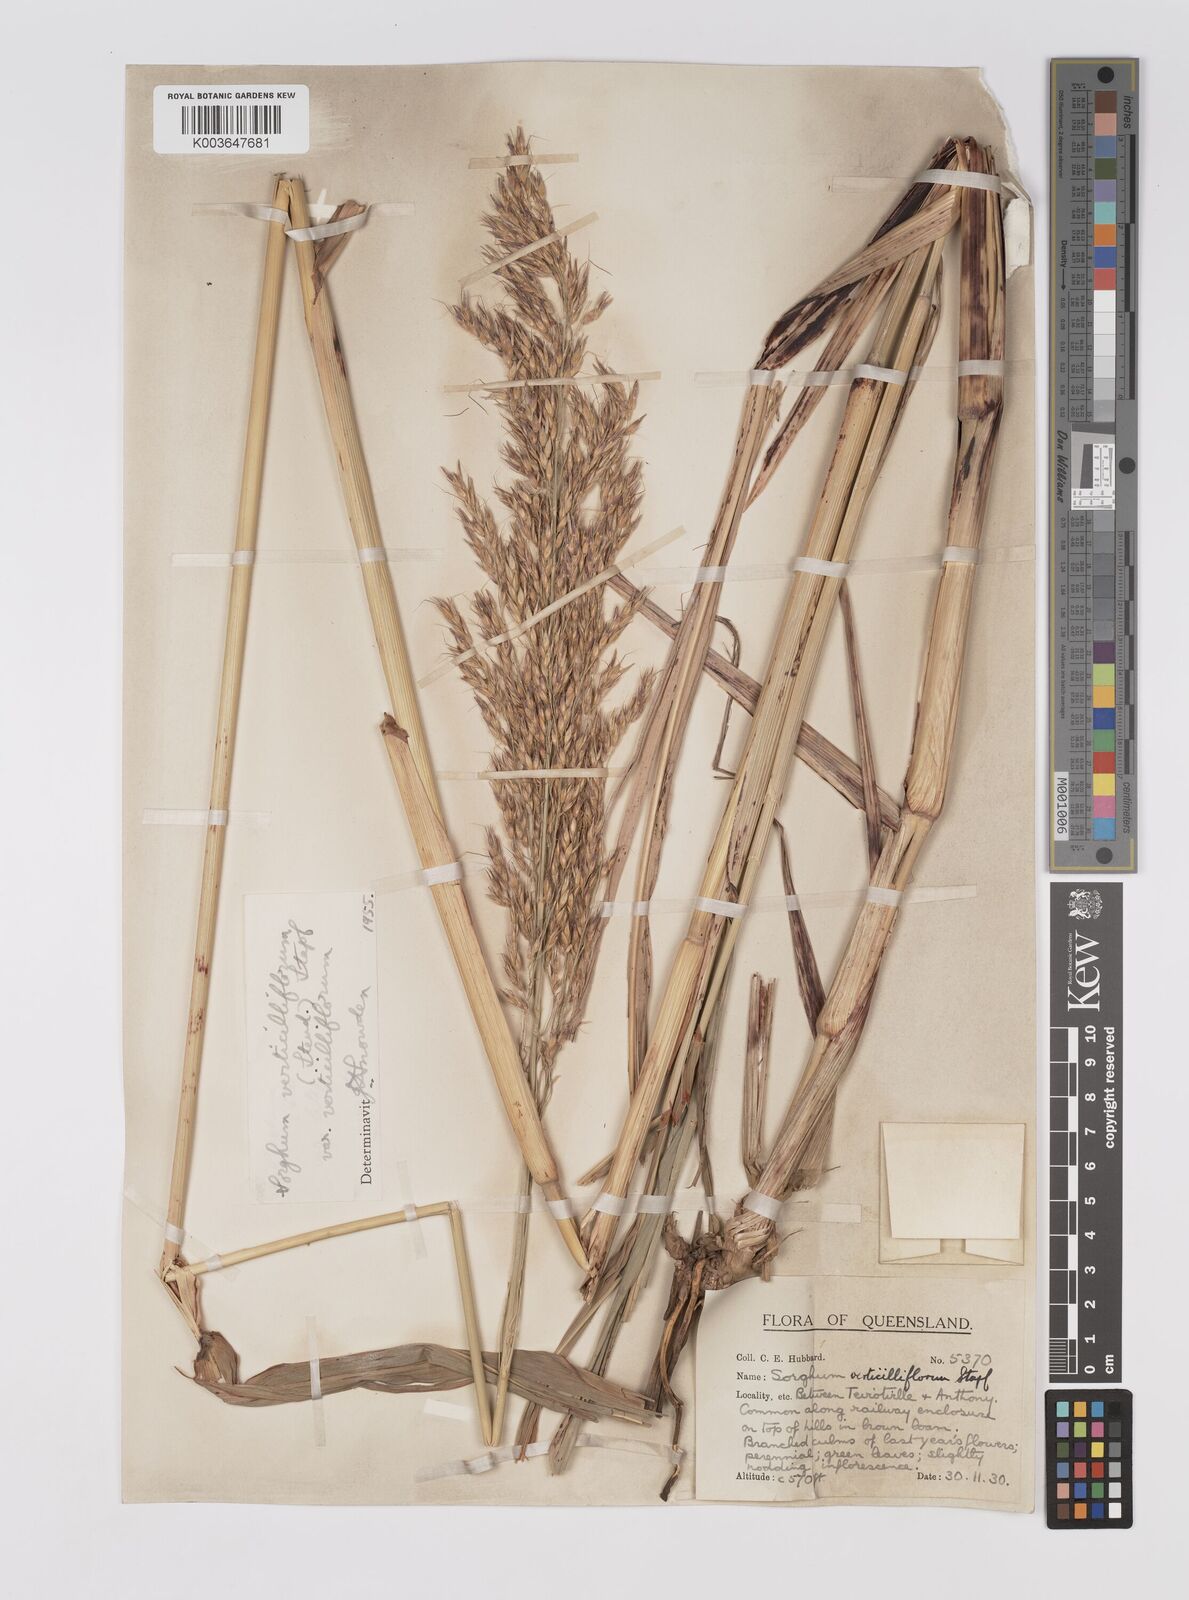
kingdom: Plantae
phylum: Tracheophyta
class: Liliopsida
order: Poales
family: Poaceae
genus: Sorghum
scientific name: Sorghum arundinaceum
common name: Sorghum
